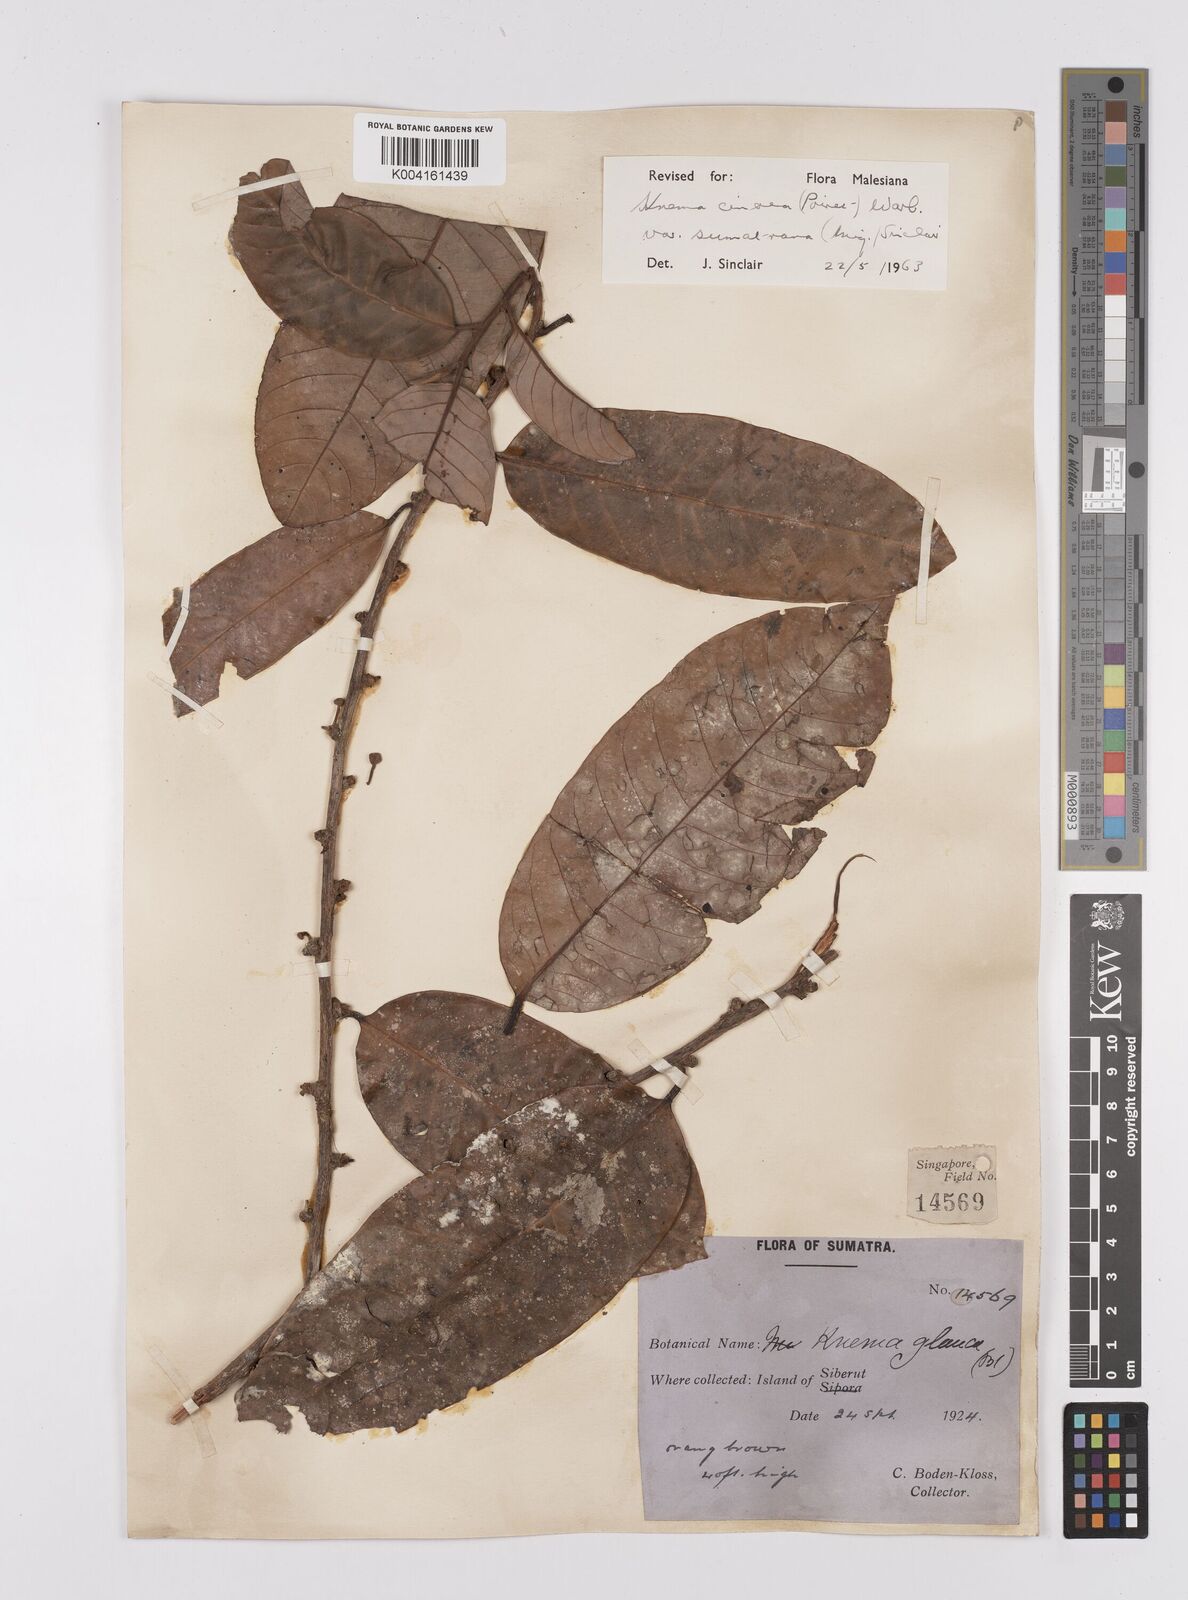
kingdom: Plantae
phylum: Tracheophyta
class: Magnoliopsida
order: Magnoliales
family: Myristicaceae
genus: Knema
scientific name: Knema
